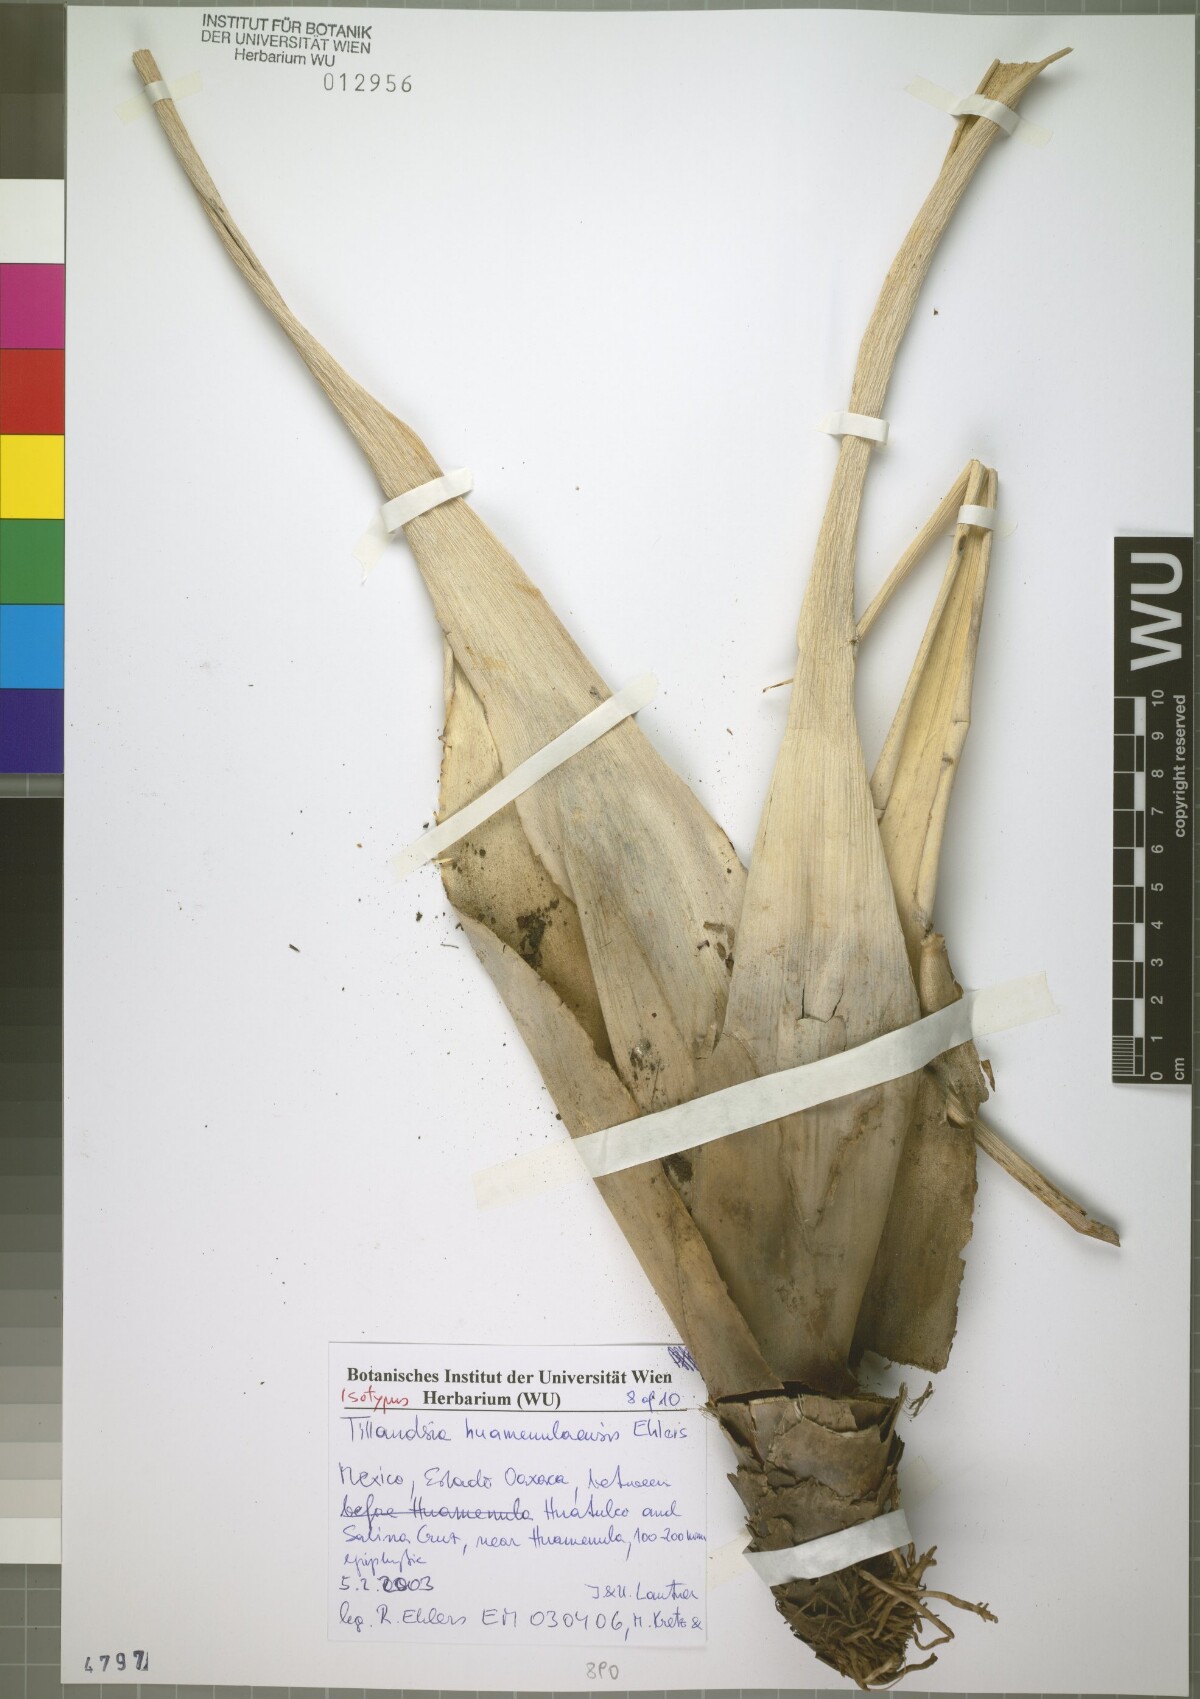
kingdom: Plantae
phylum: Tracheophyta
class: Liliopsida
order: Poales
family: Bromeliaceae
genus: Tillandsia
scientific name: Tillandsia huamenulaensis
